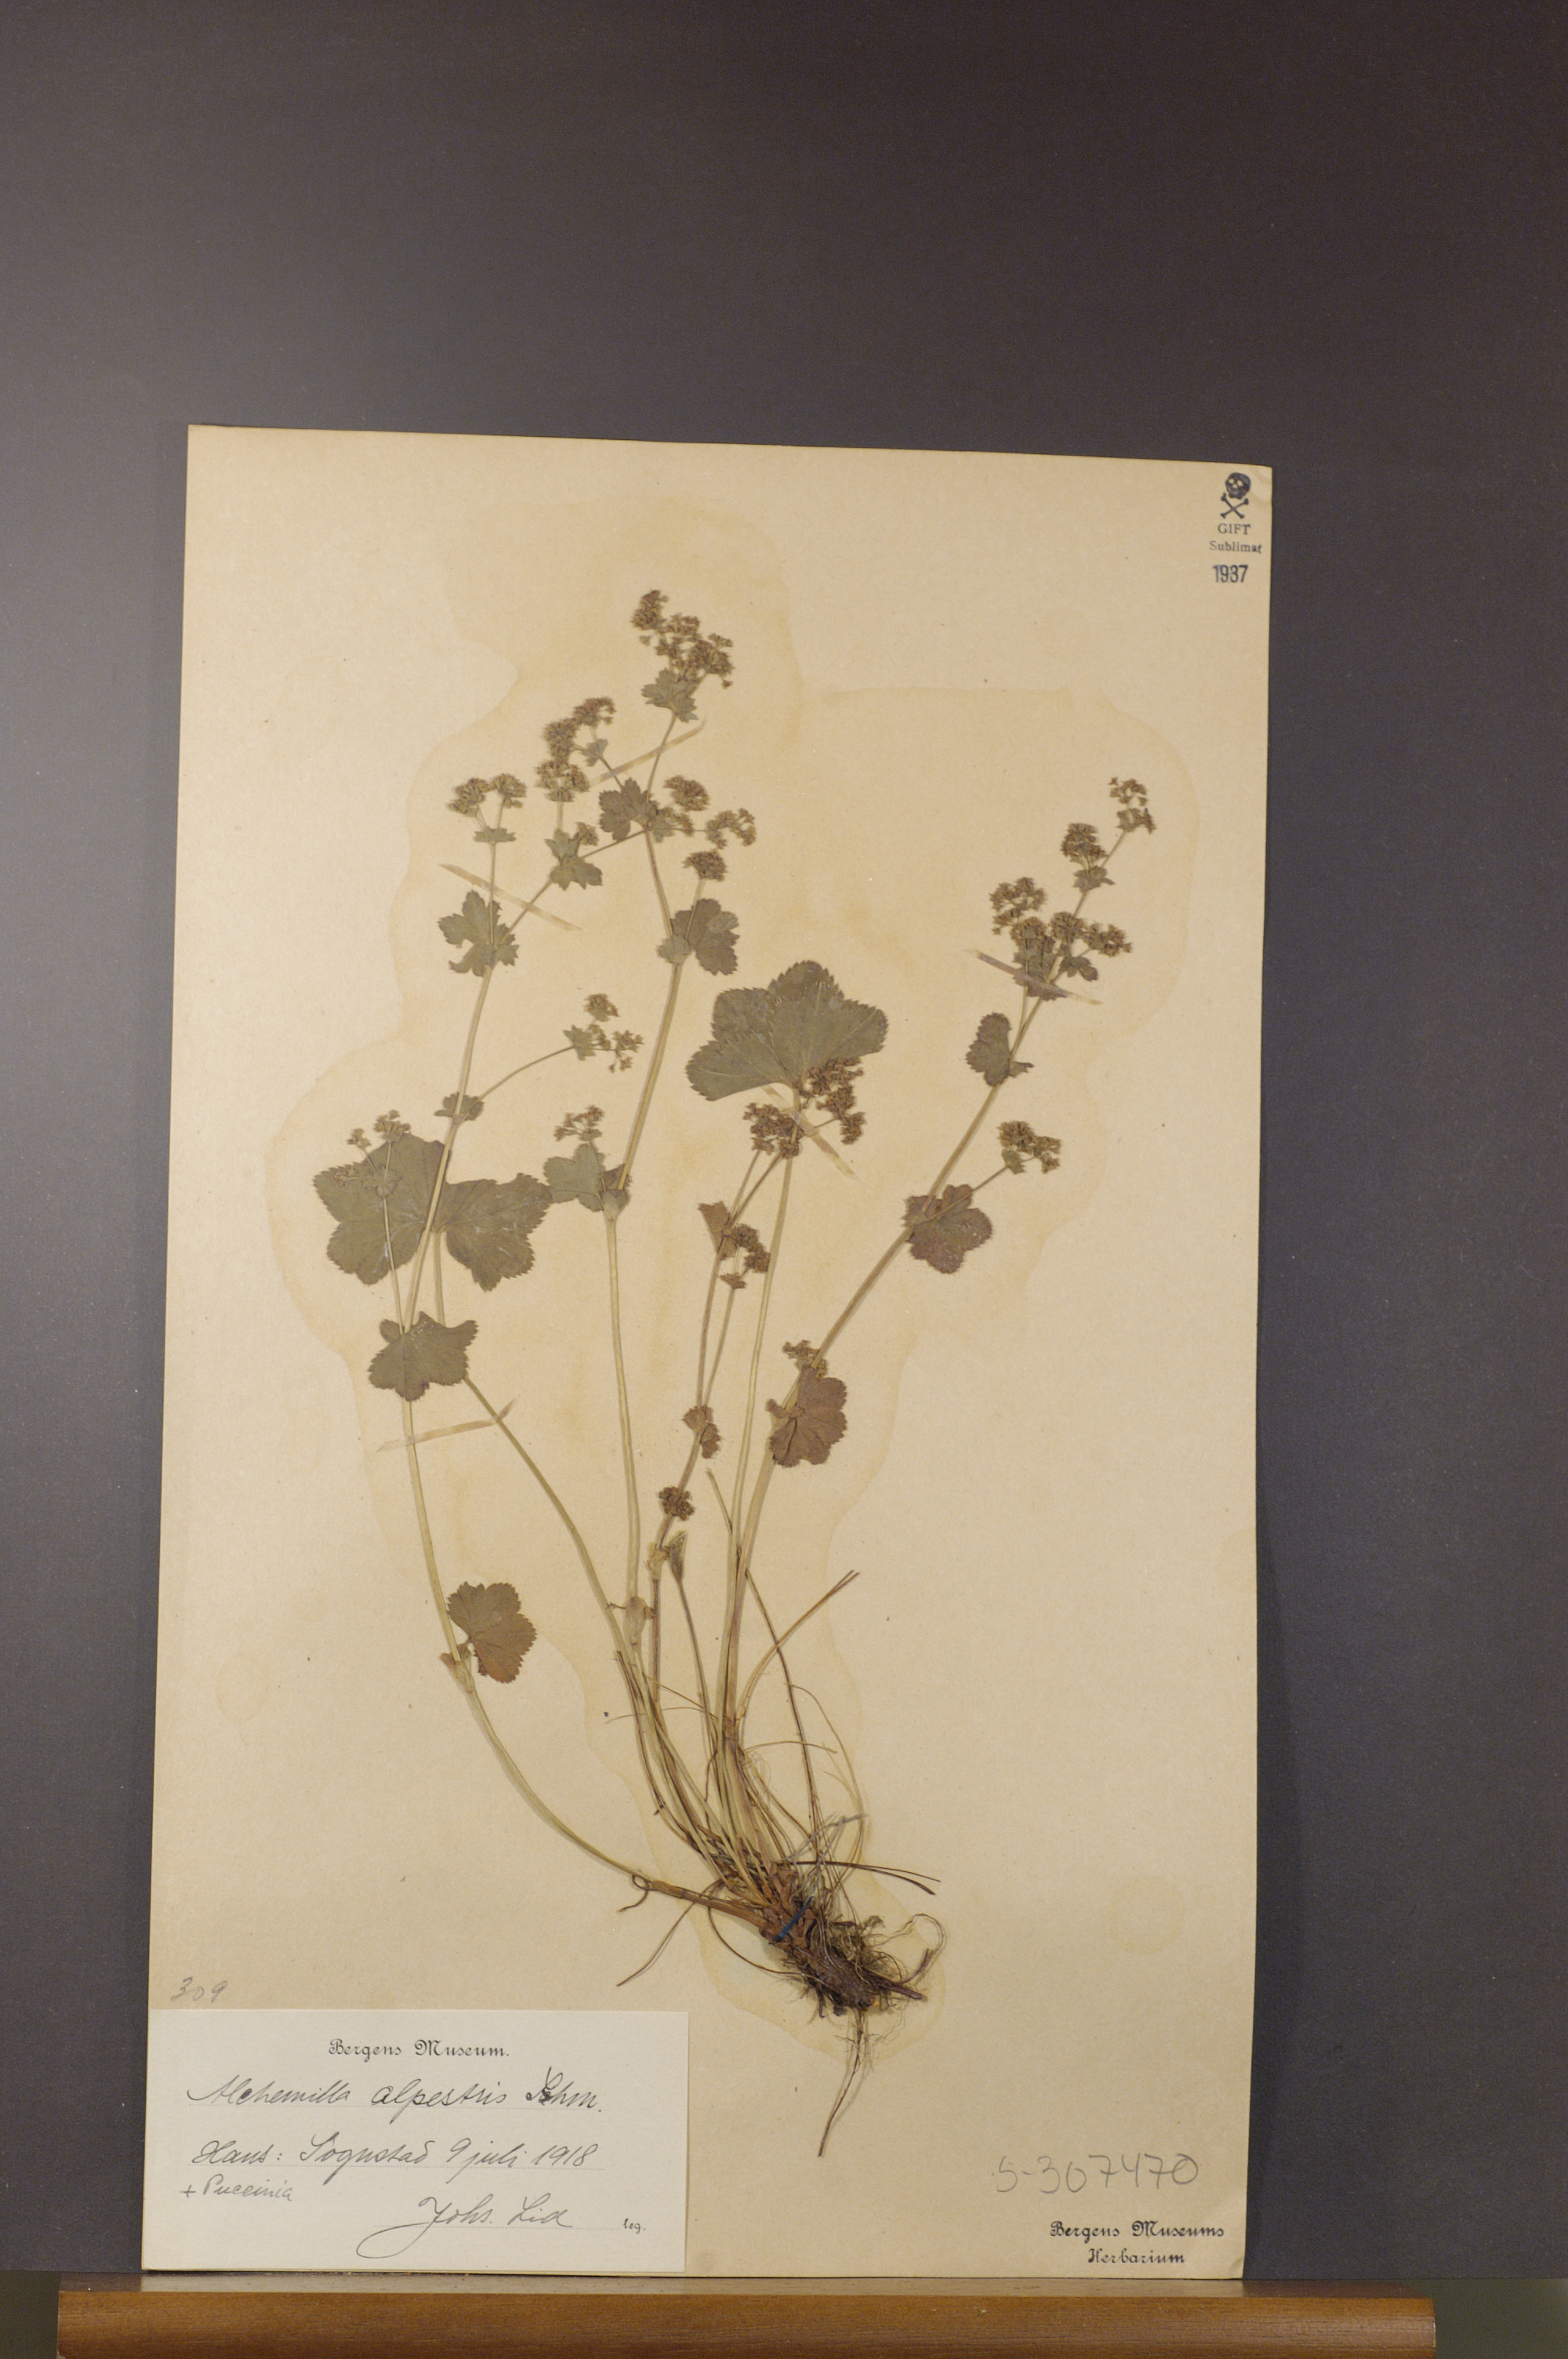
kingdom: Plantae
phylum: Tracheophyta
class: Magnoliopsida
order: Rosales
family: Rosaceae
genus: Alchemilla
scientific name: Alchemilla glabra
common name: Smooth lady's-mantle
